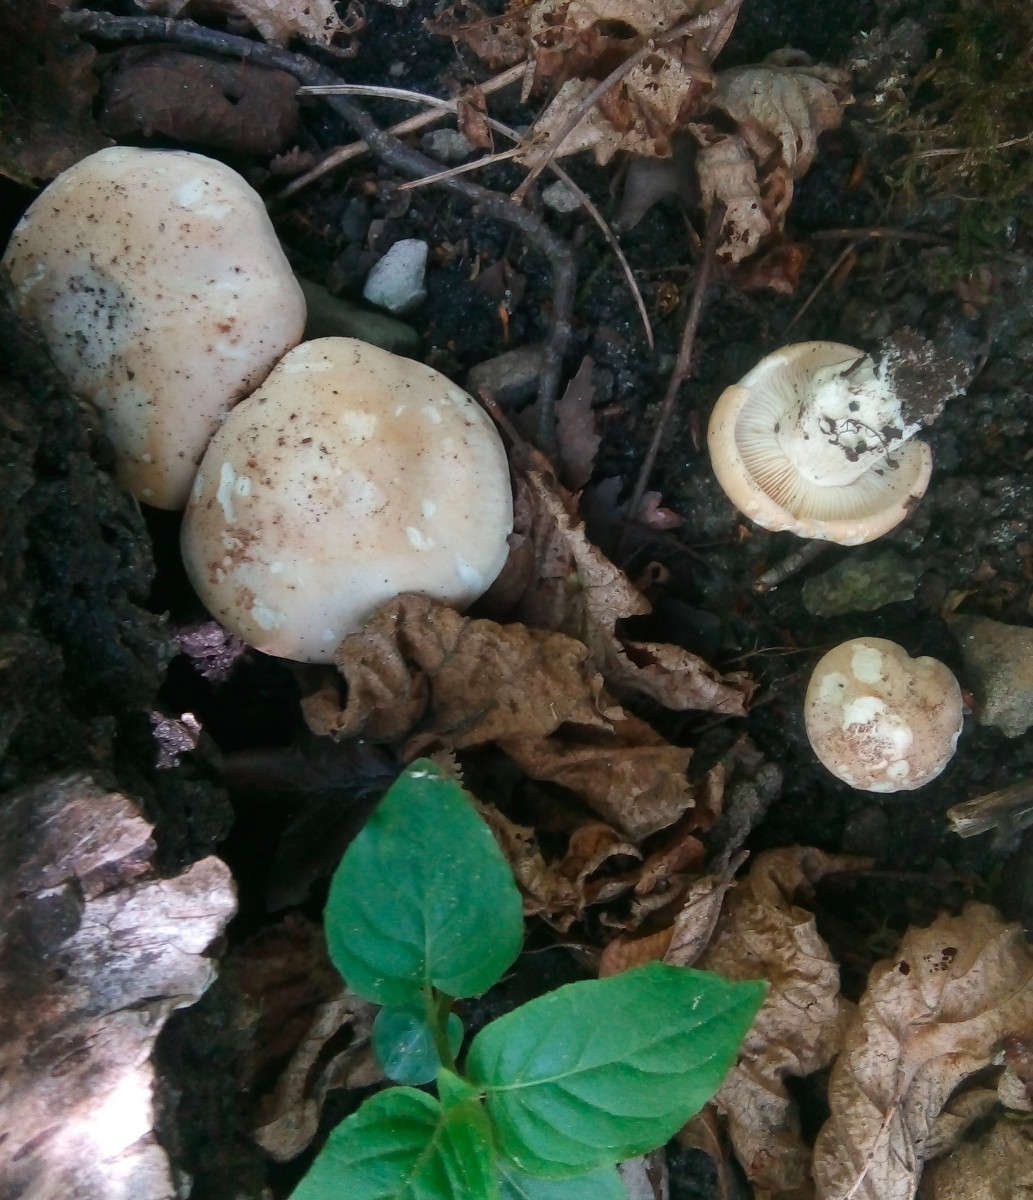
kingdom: Fungi
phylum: Basidiomycota
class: Agaricomycetes
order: Agaricales
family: Lyophyllaceae
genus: Calocybe
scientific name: Calocybe gambosa
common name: vårmusseron
